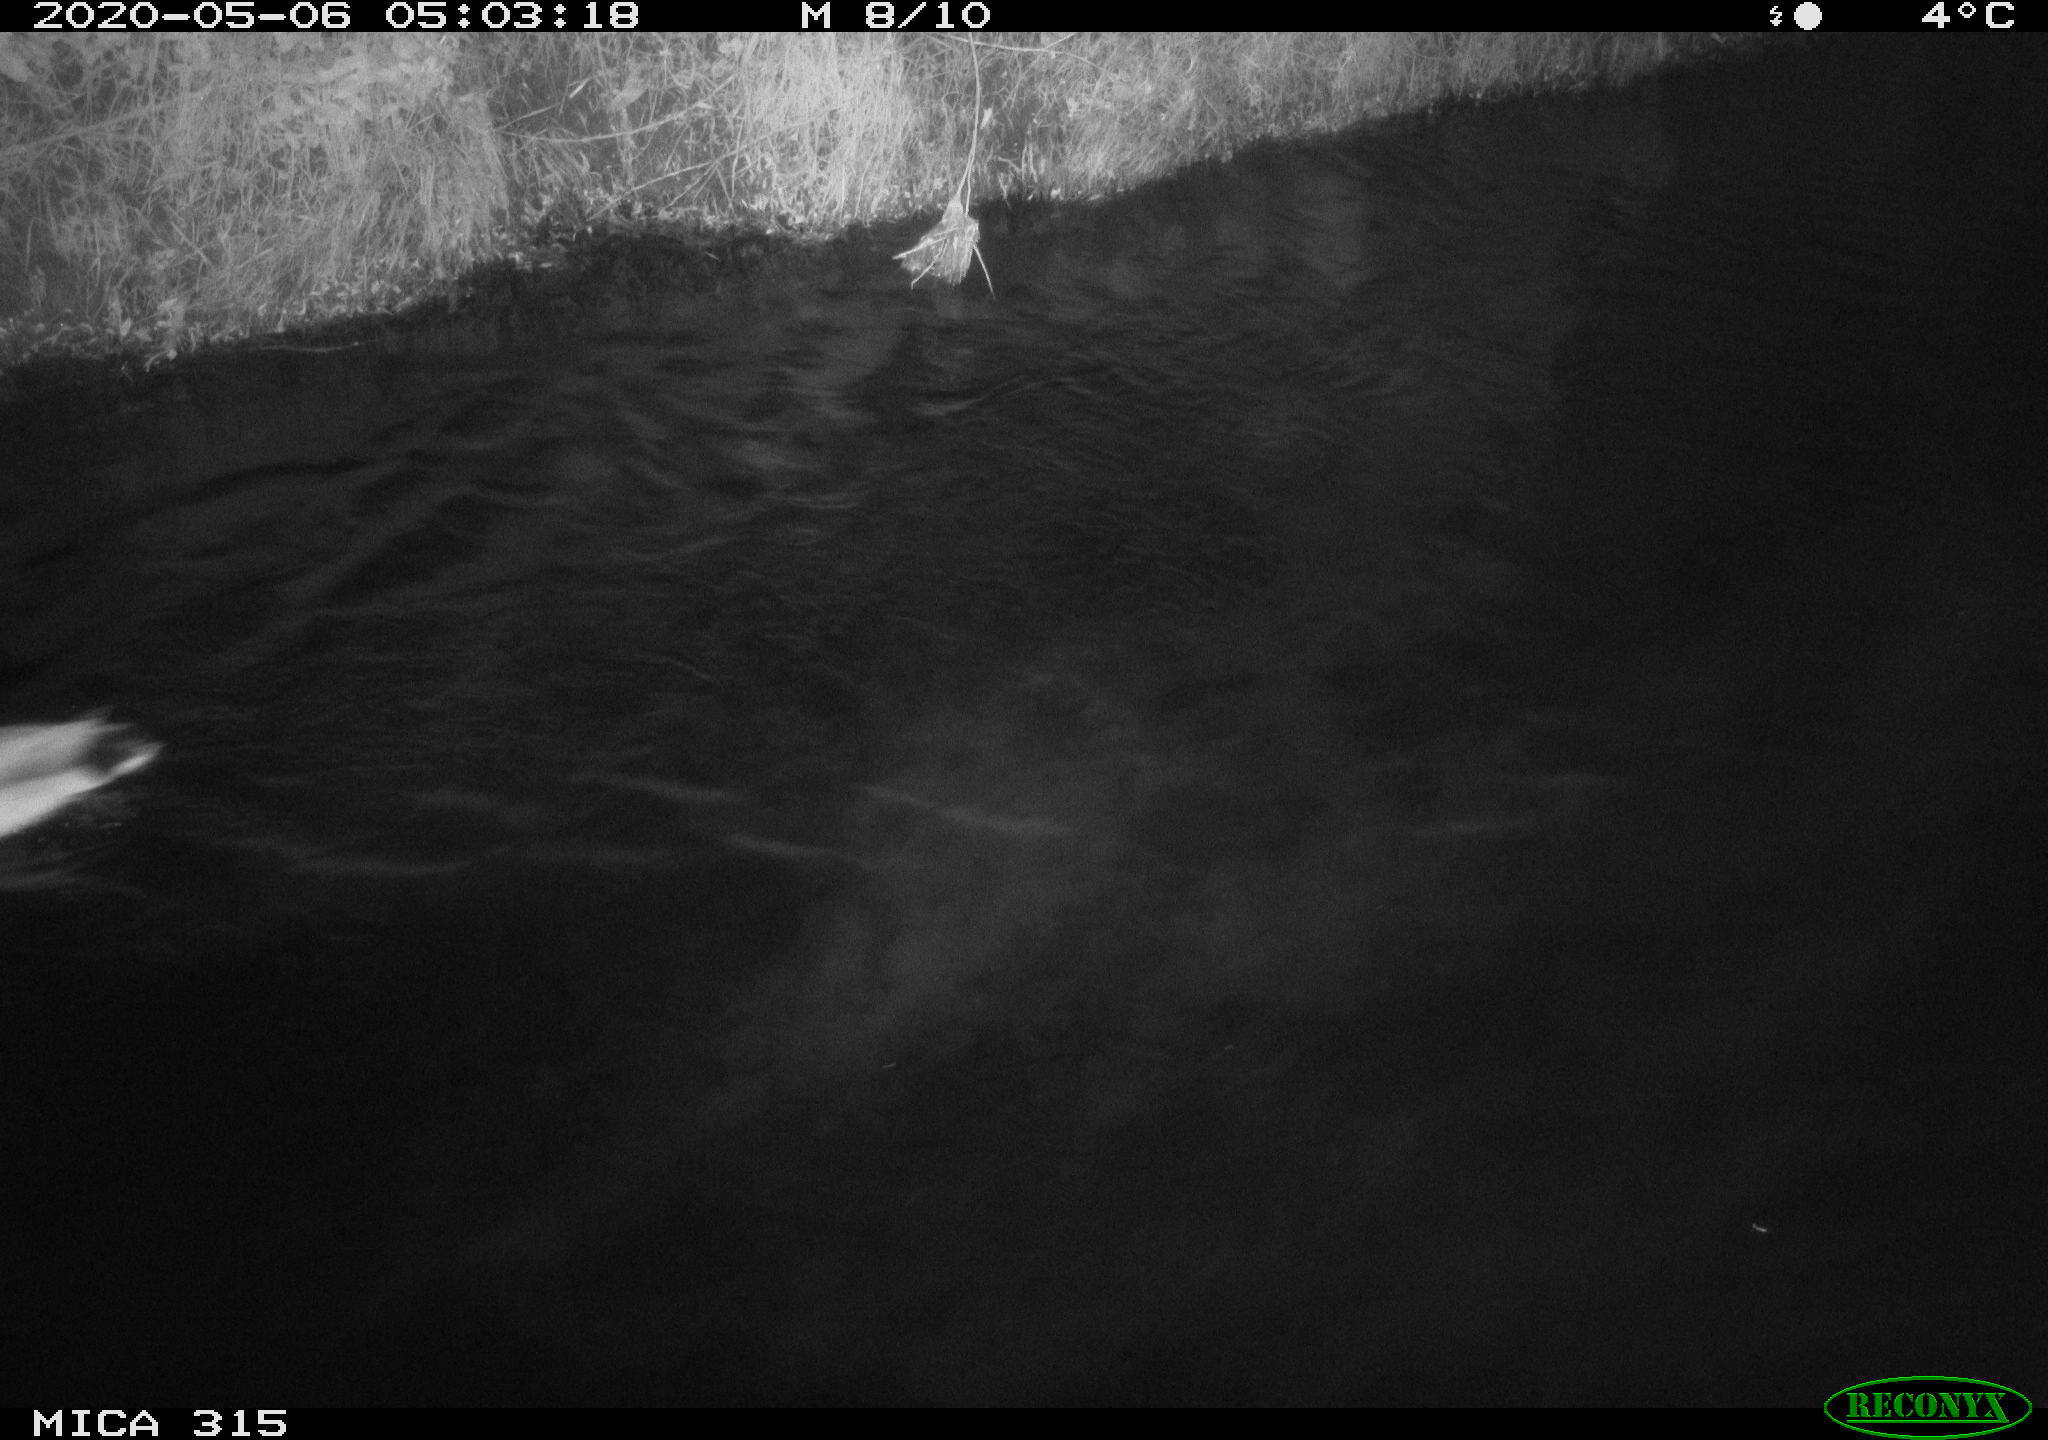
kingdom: Animalia
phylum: Chordata
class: Aves
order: Anseriformes
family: Anatidae
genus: Anas
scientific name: Anas platyrhynchos
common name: Mallard
